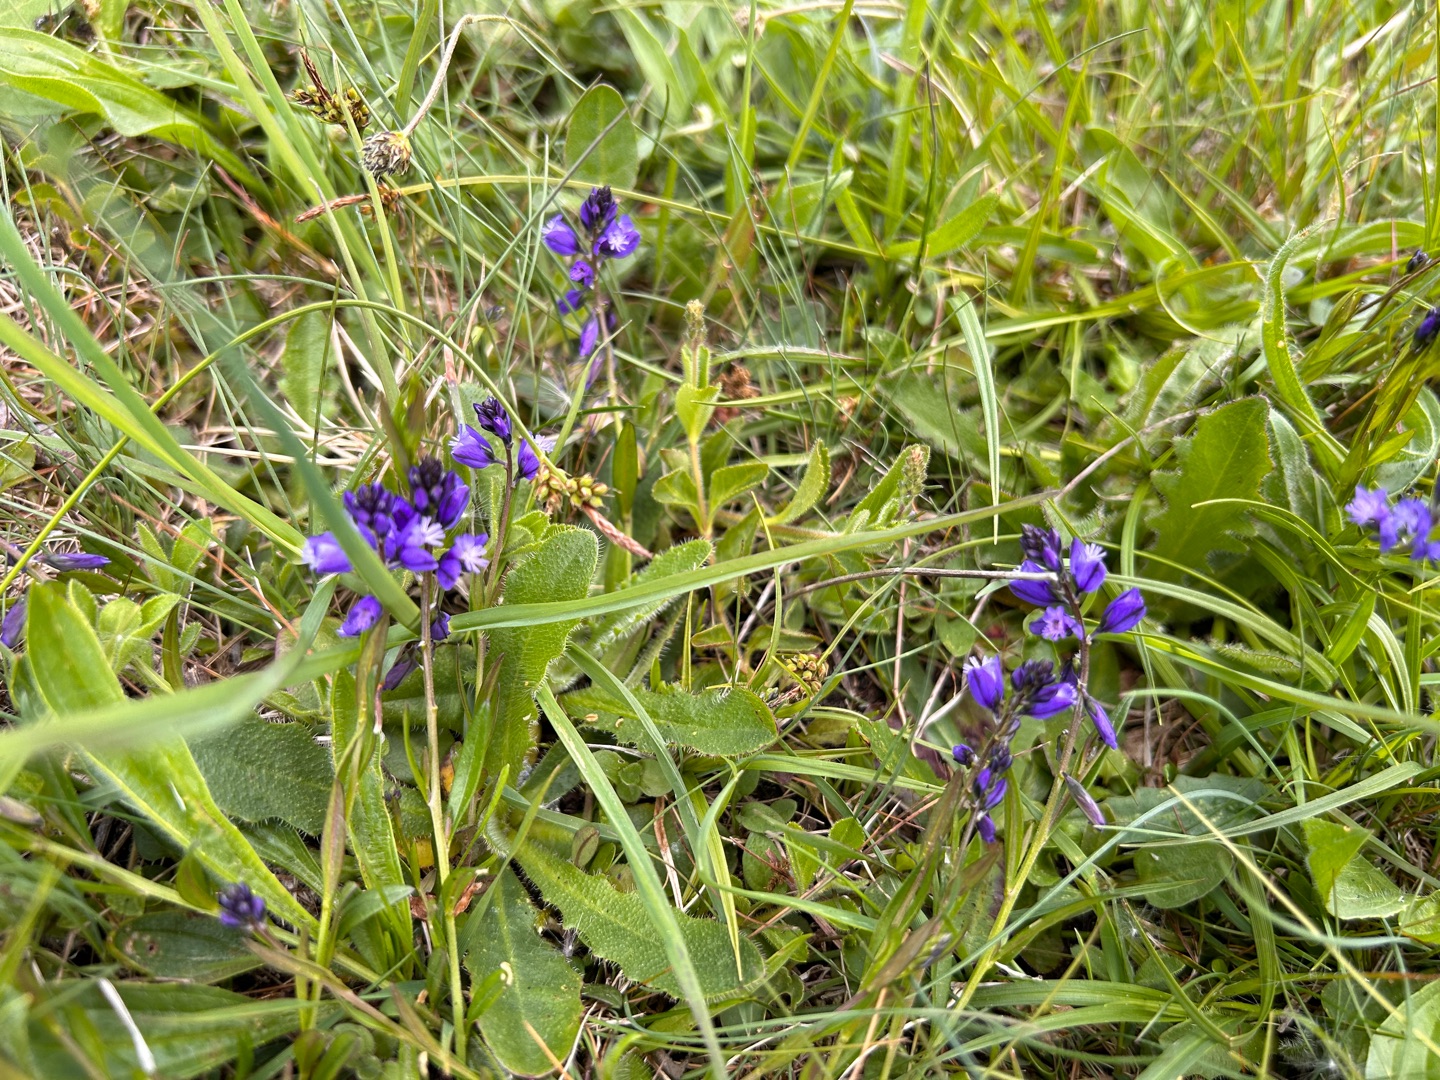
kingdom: Plantae
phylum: Tracheophyta
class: Magnoliopsida
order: Fabales
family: Polygalaceae
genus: Polygala
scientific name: Polygala vulgaris
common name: Almindelig mælkeurt
